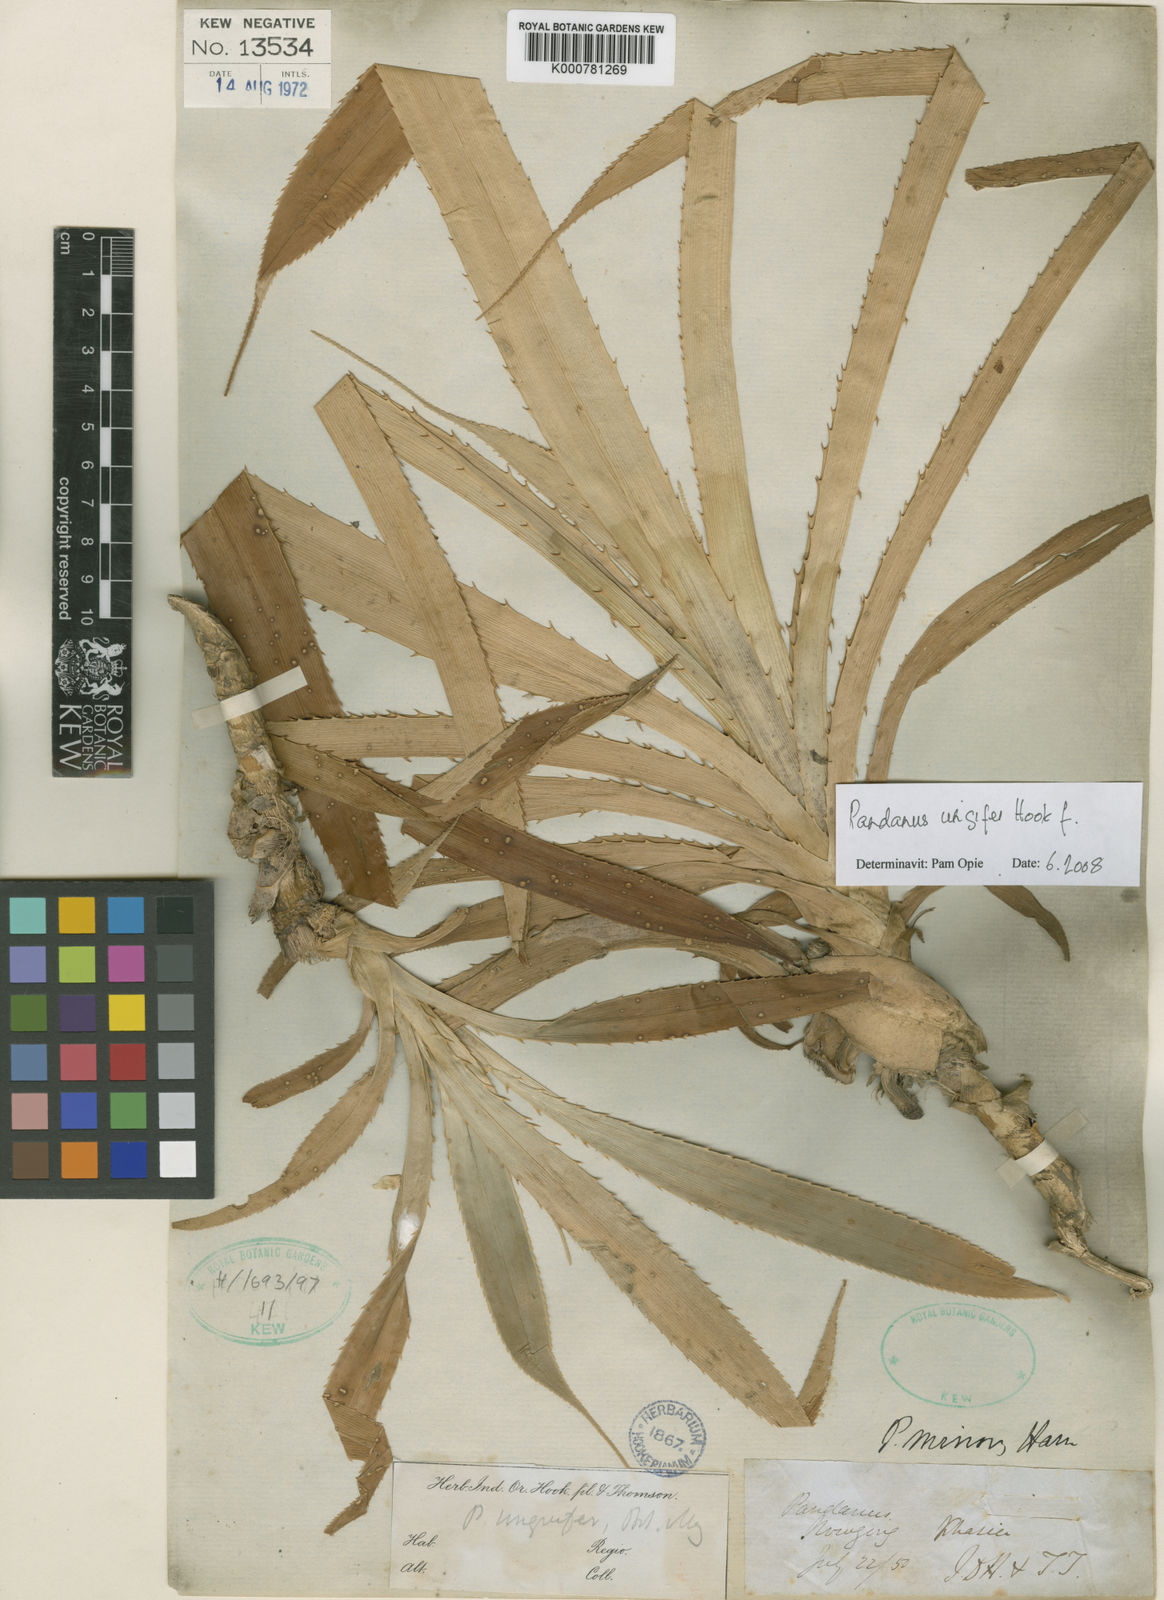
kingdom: Plantae
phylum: Tracheophyta
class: Liliopsida
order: Pandanales
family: Pandanaceae
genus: Pandanus
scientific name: Pandanus unguifer
